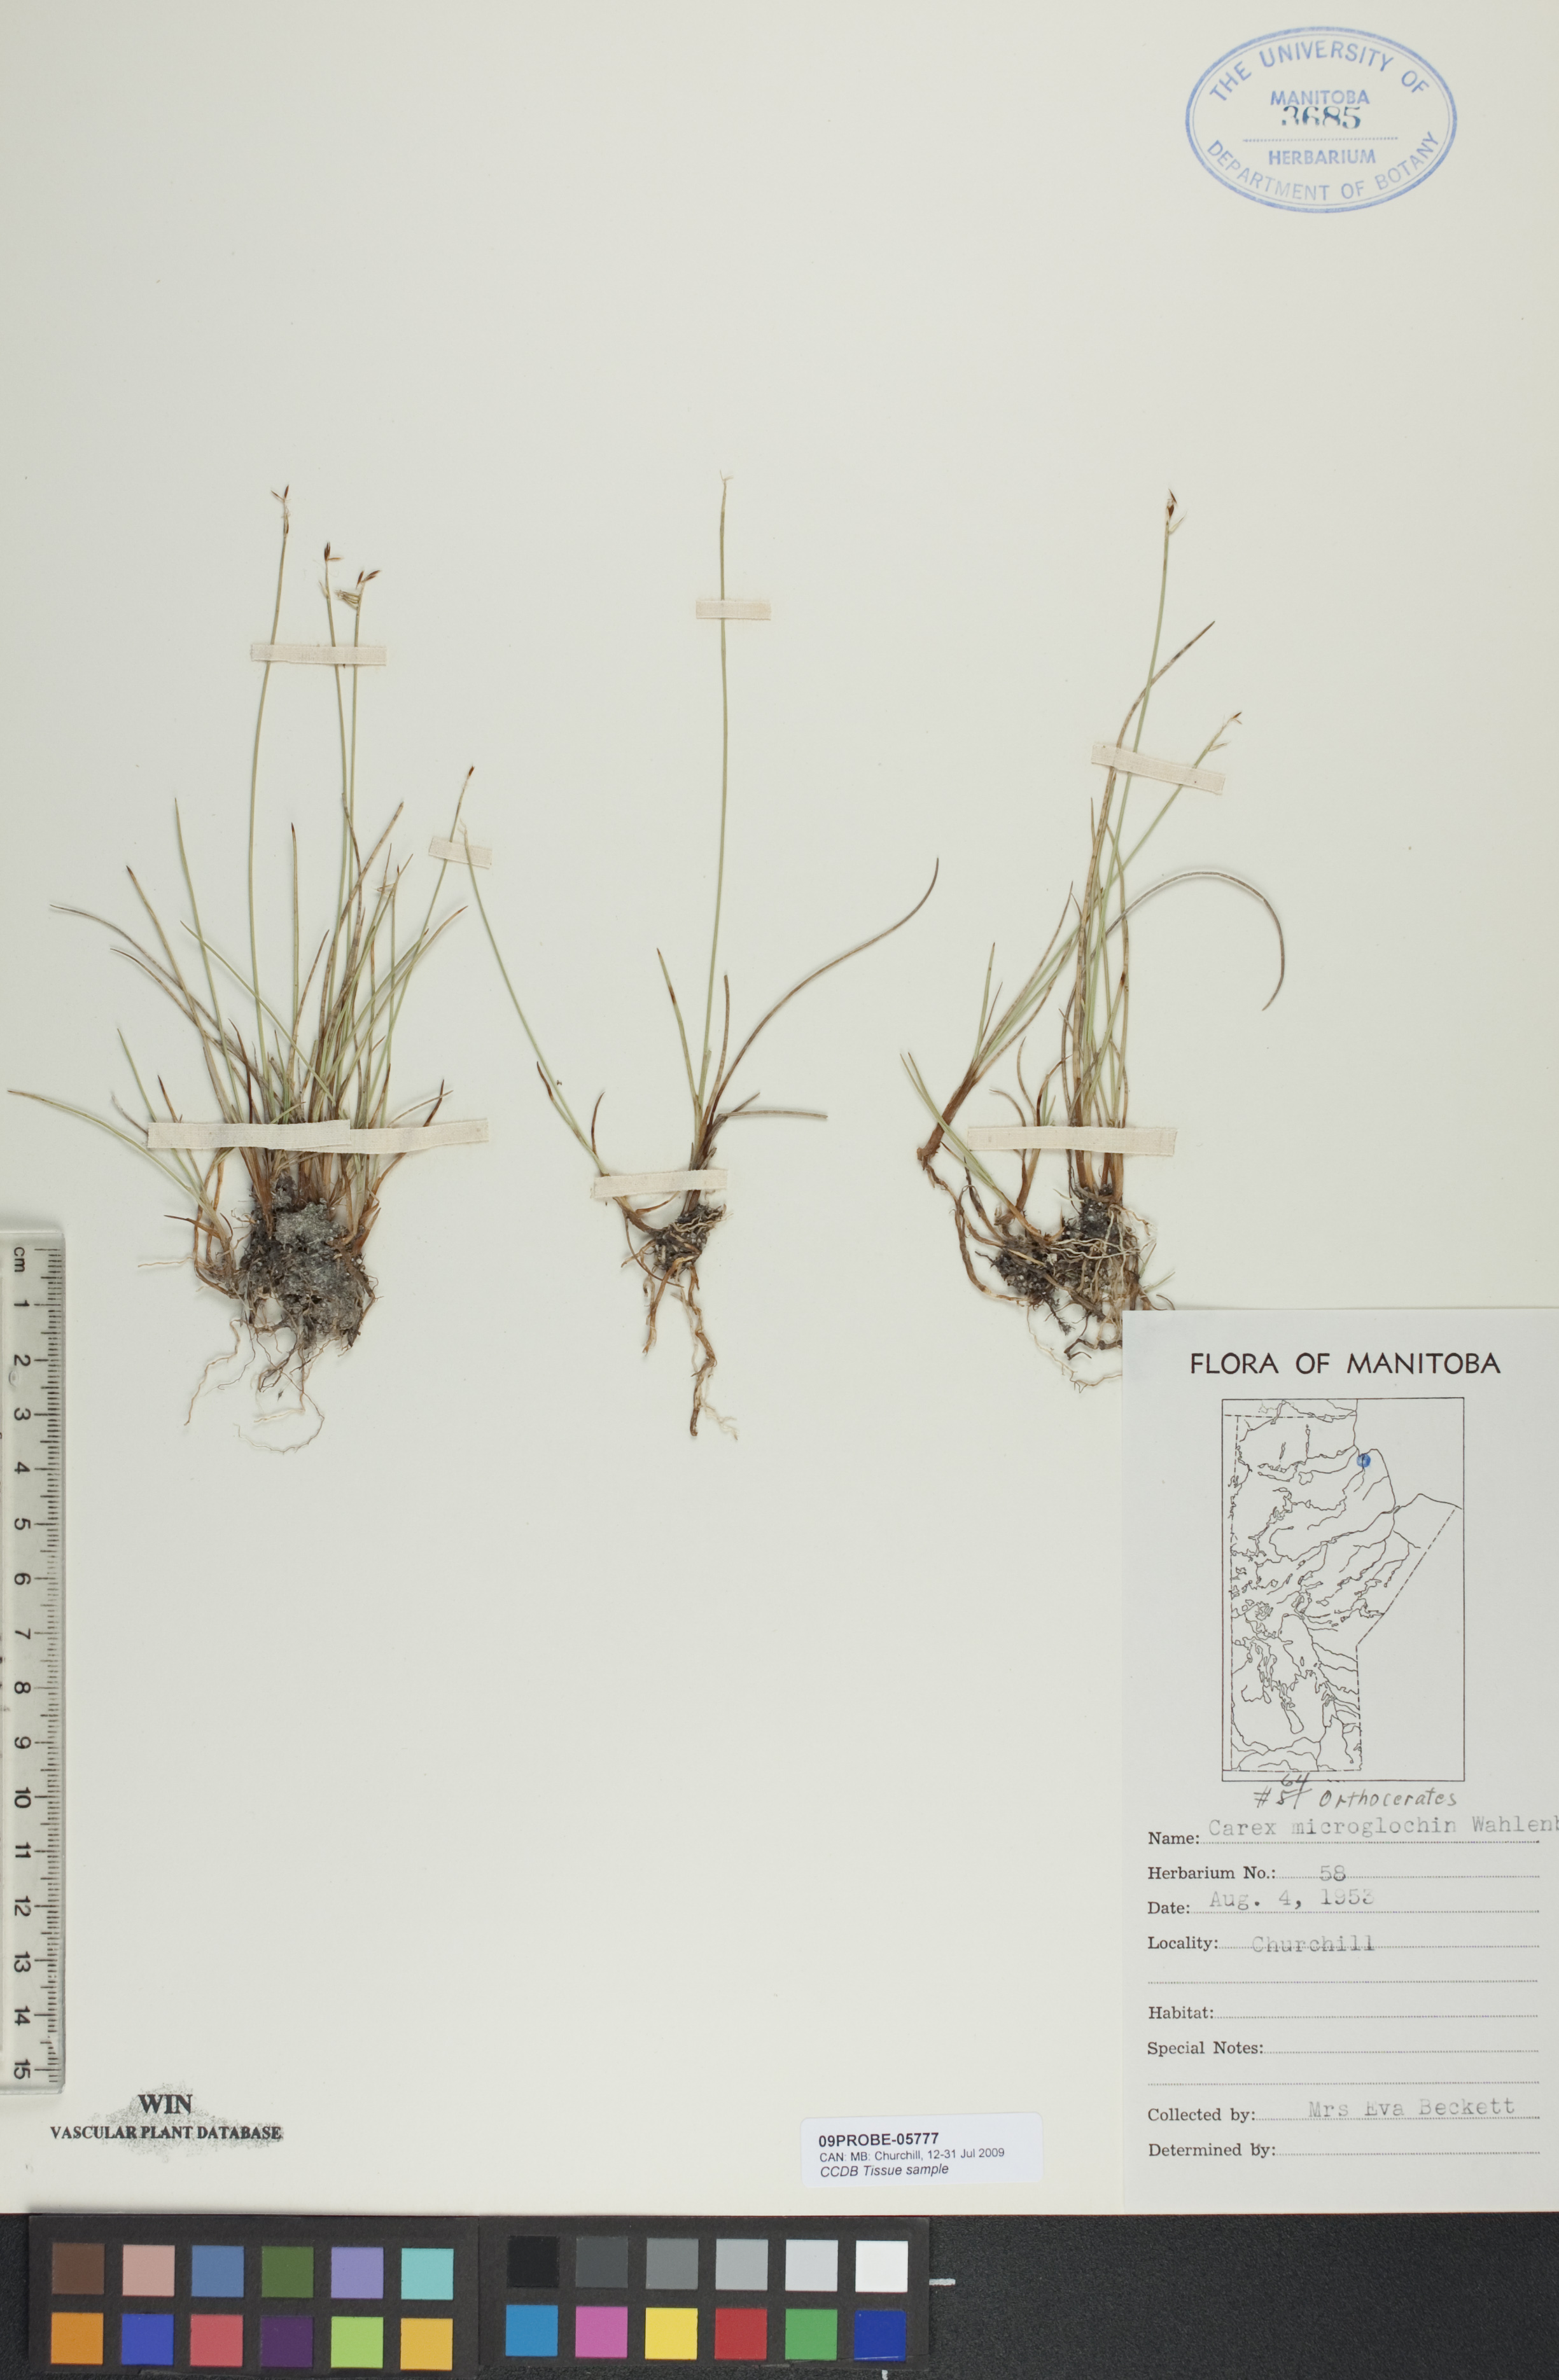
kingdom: Plantae
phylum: Tracheophyta
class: Liliopsida
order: Poales
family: Cyperaceae
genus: Carex
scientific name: Carex microglochin
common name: Bristle sedge
